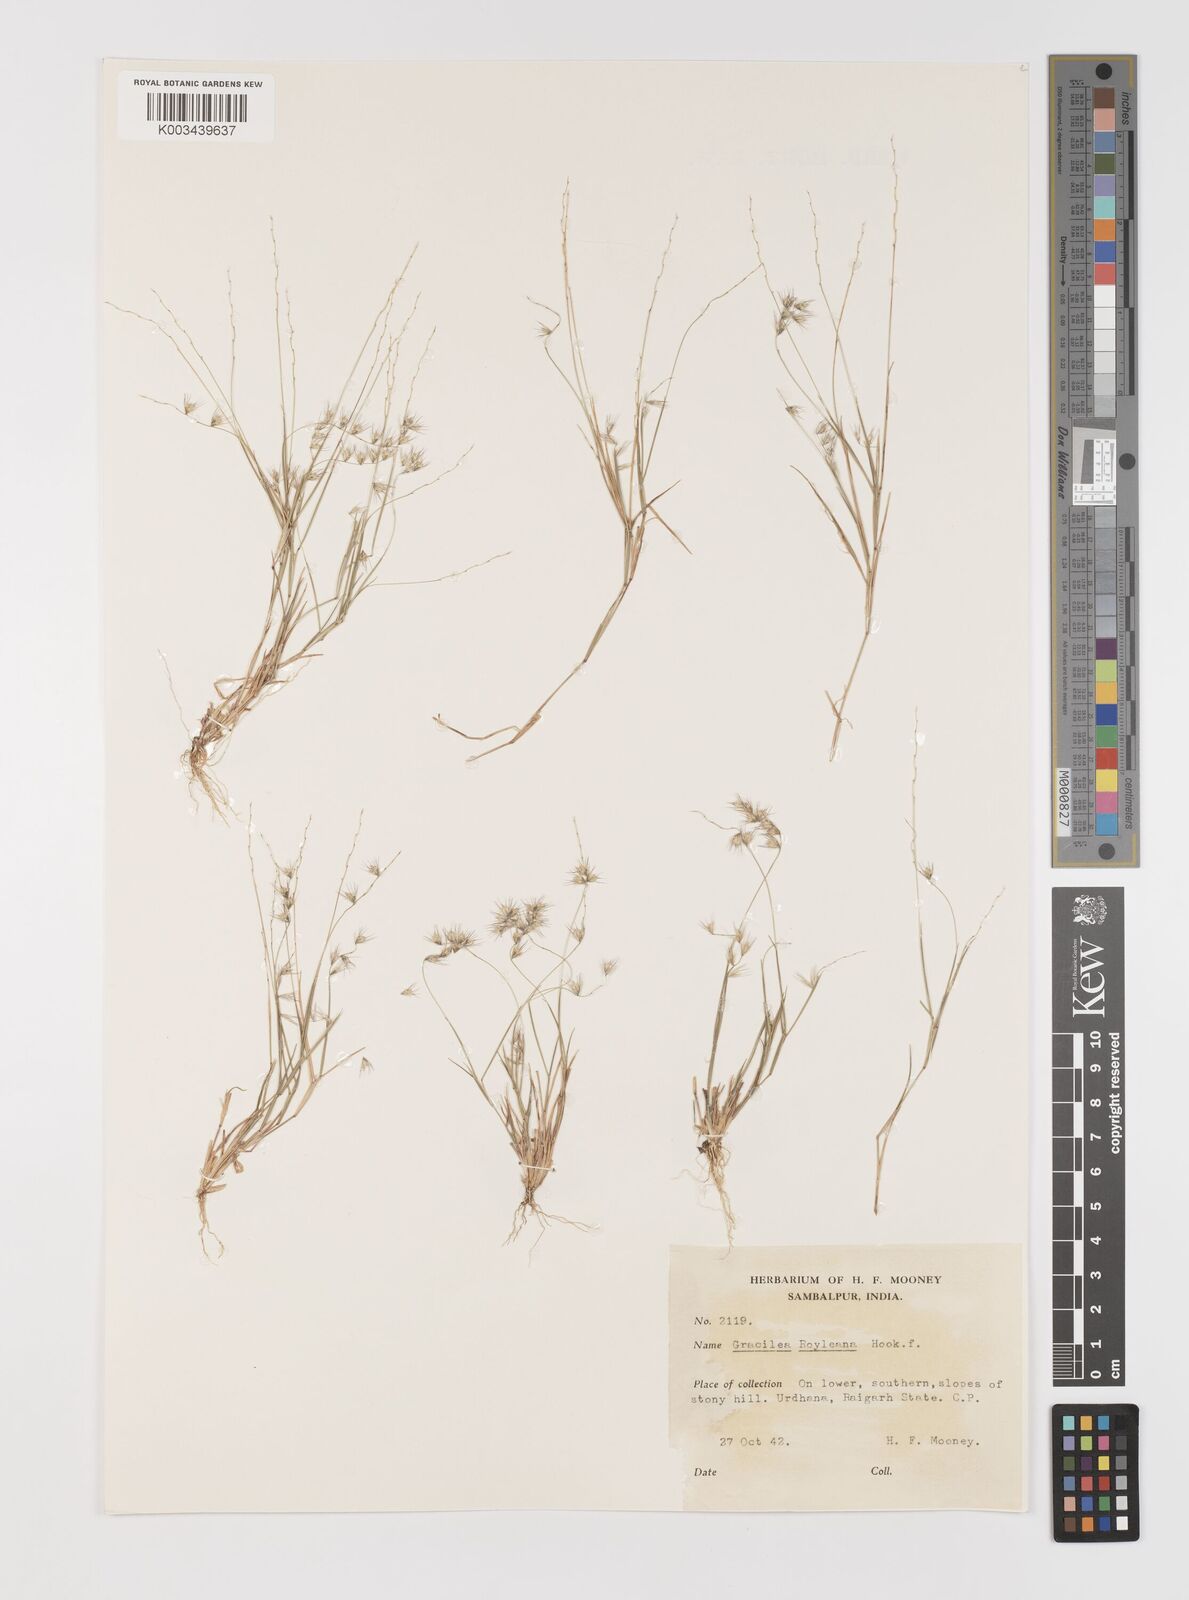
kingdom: Plantae
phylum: Tracheophyta
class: Liliopsida
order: Poales
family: Poaceae
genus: Melanocenchris
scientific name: Melanocenchris jacquemontii
